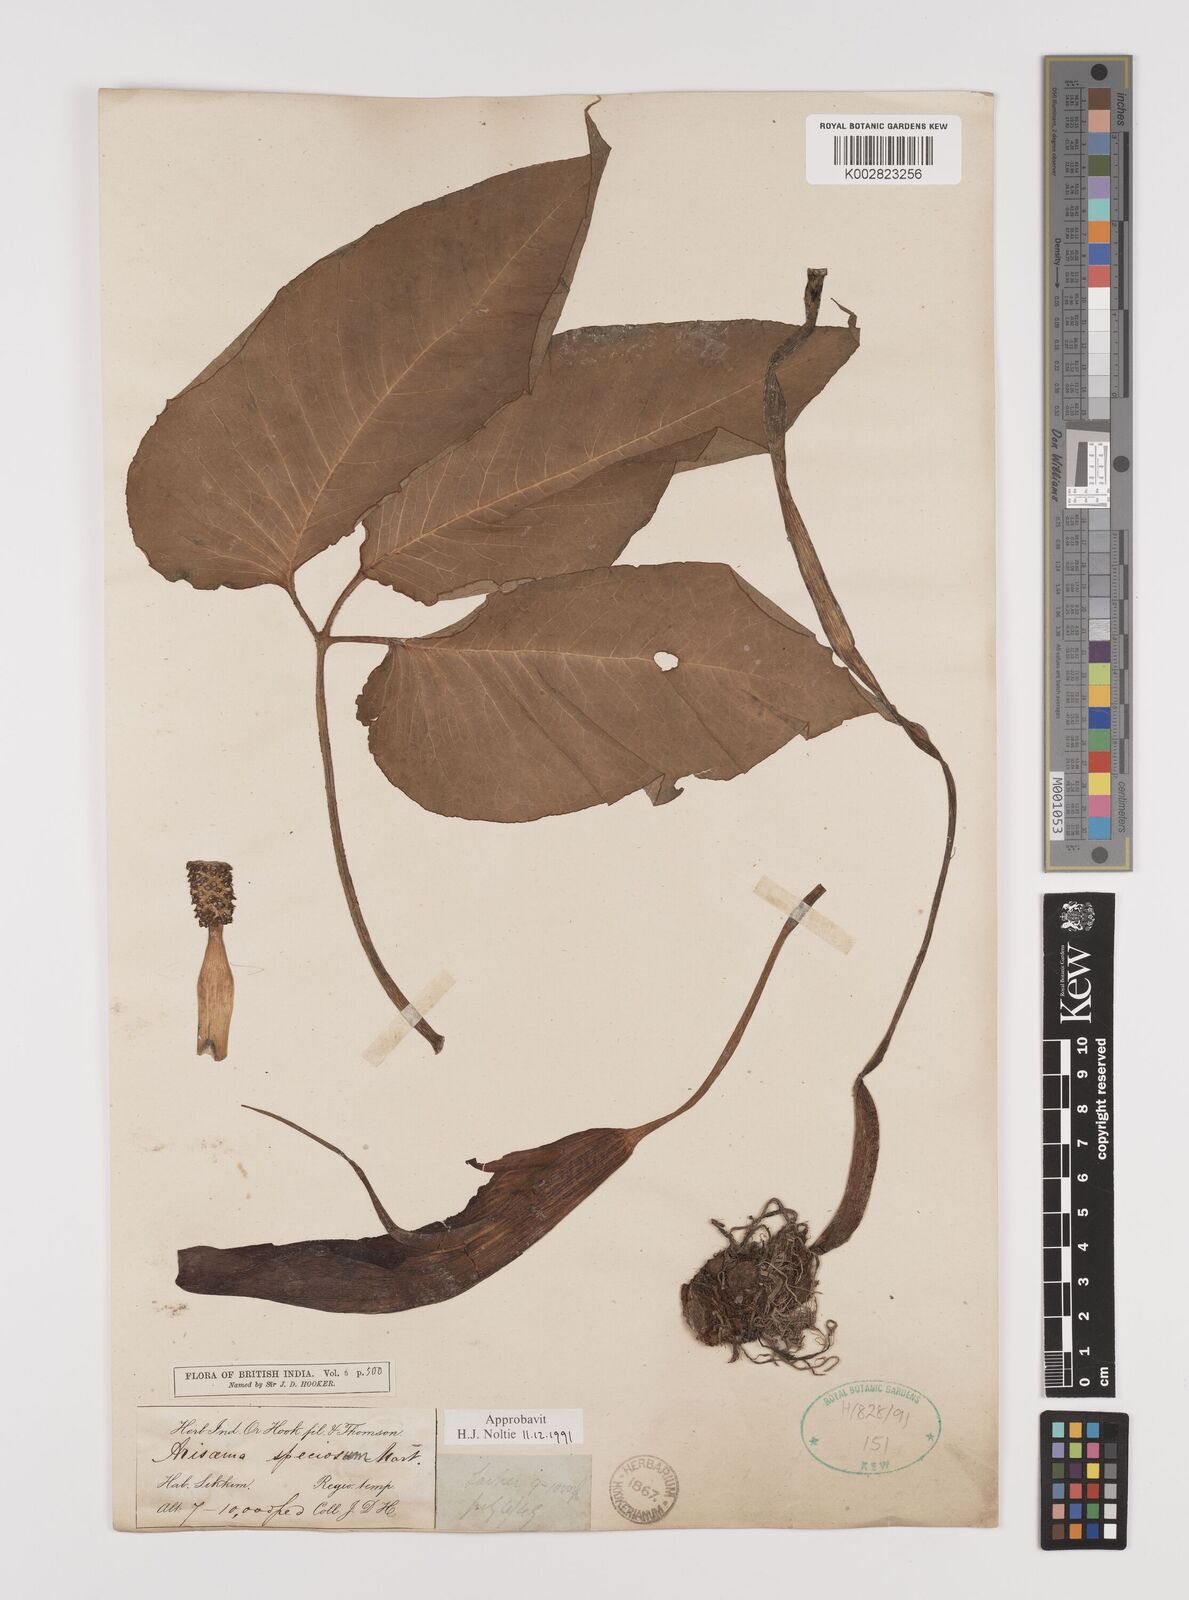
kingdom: Plantae
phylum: Tracheophyta
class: Liliopsida
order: Alismatales
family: Araceae
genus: Arisaema
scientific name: Arisaema speciosum
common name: Showy cobra-lily
